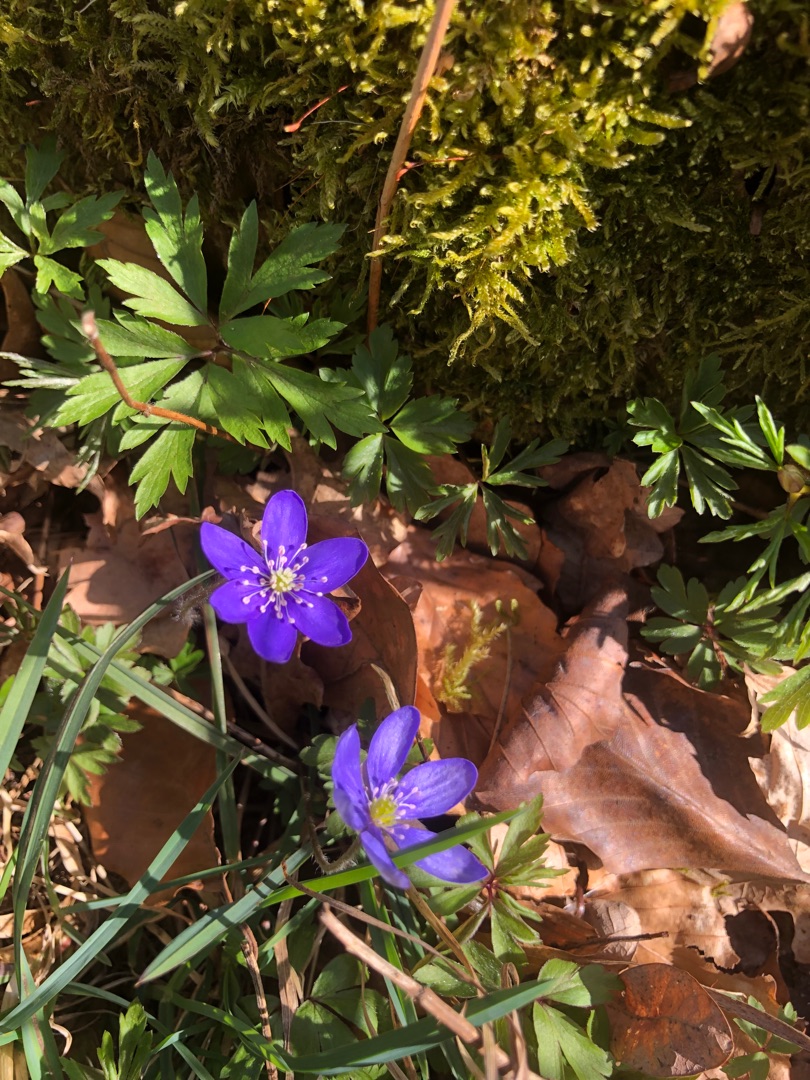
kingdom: Plantae
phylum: Tracheophyta
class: Magnoliopsida
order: Ranunculales
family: Ranunculaceae
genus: Hepatica
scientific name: Hepatica nobilis
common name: Blå anemone
